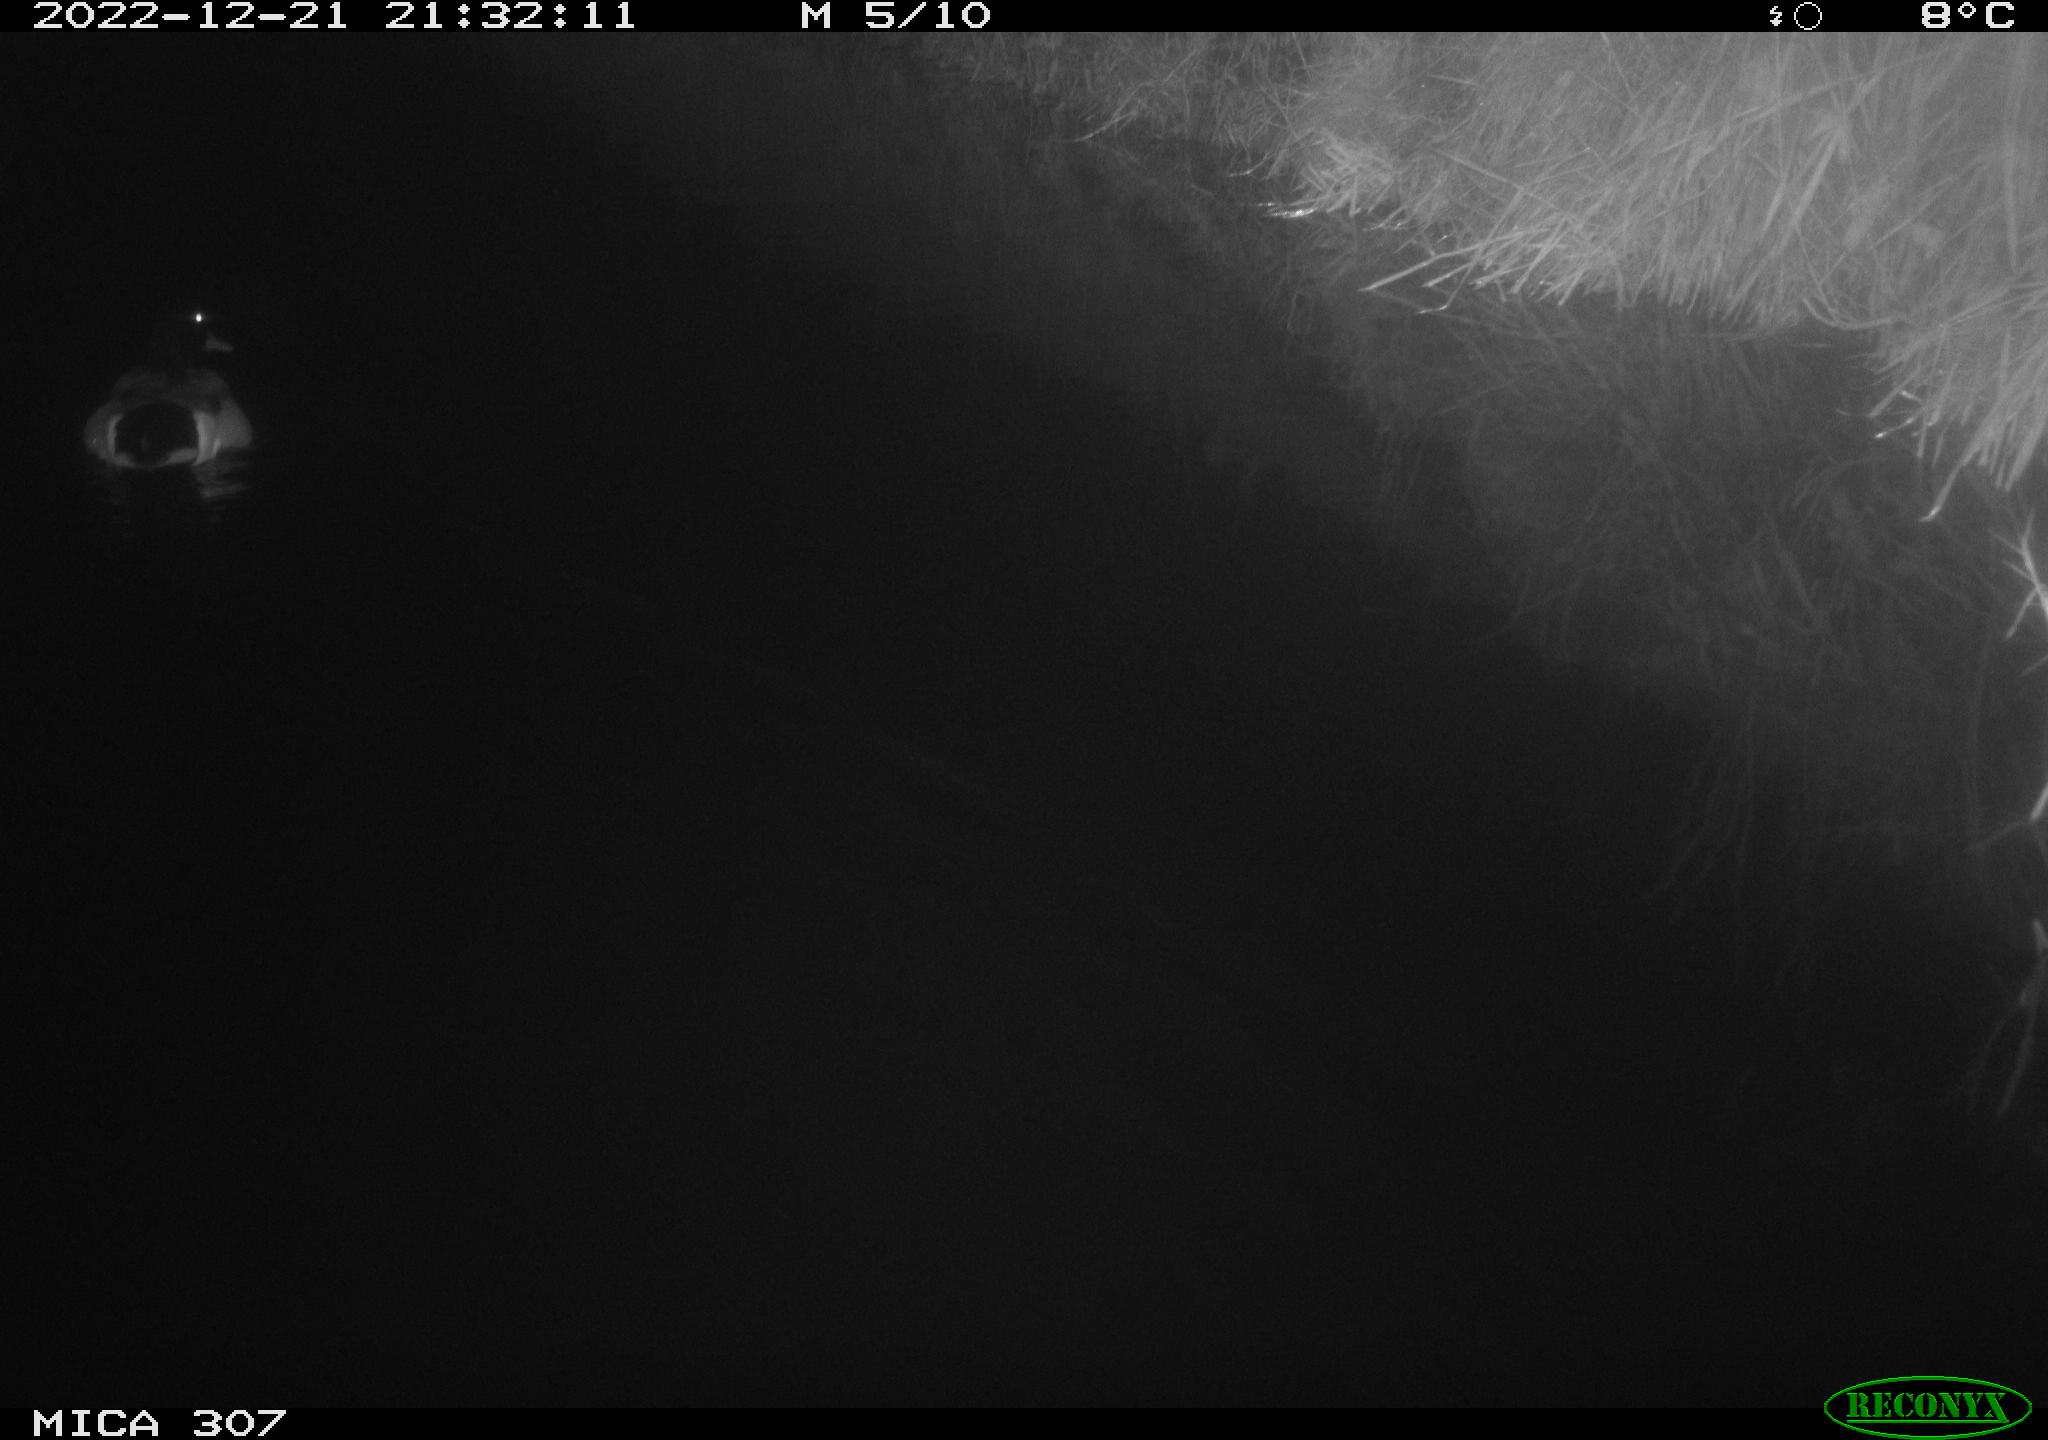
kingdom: Animalia
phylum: Chordata
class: Aves
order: Anseriformes
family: Anatidae
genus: Anas
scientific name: Anas
